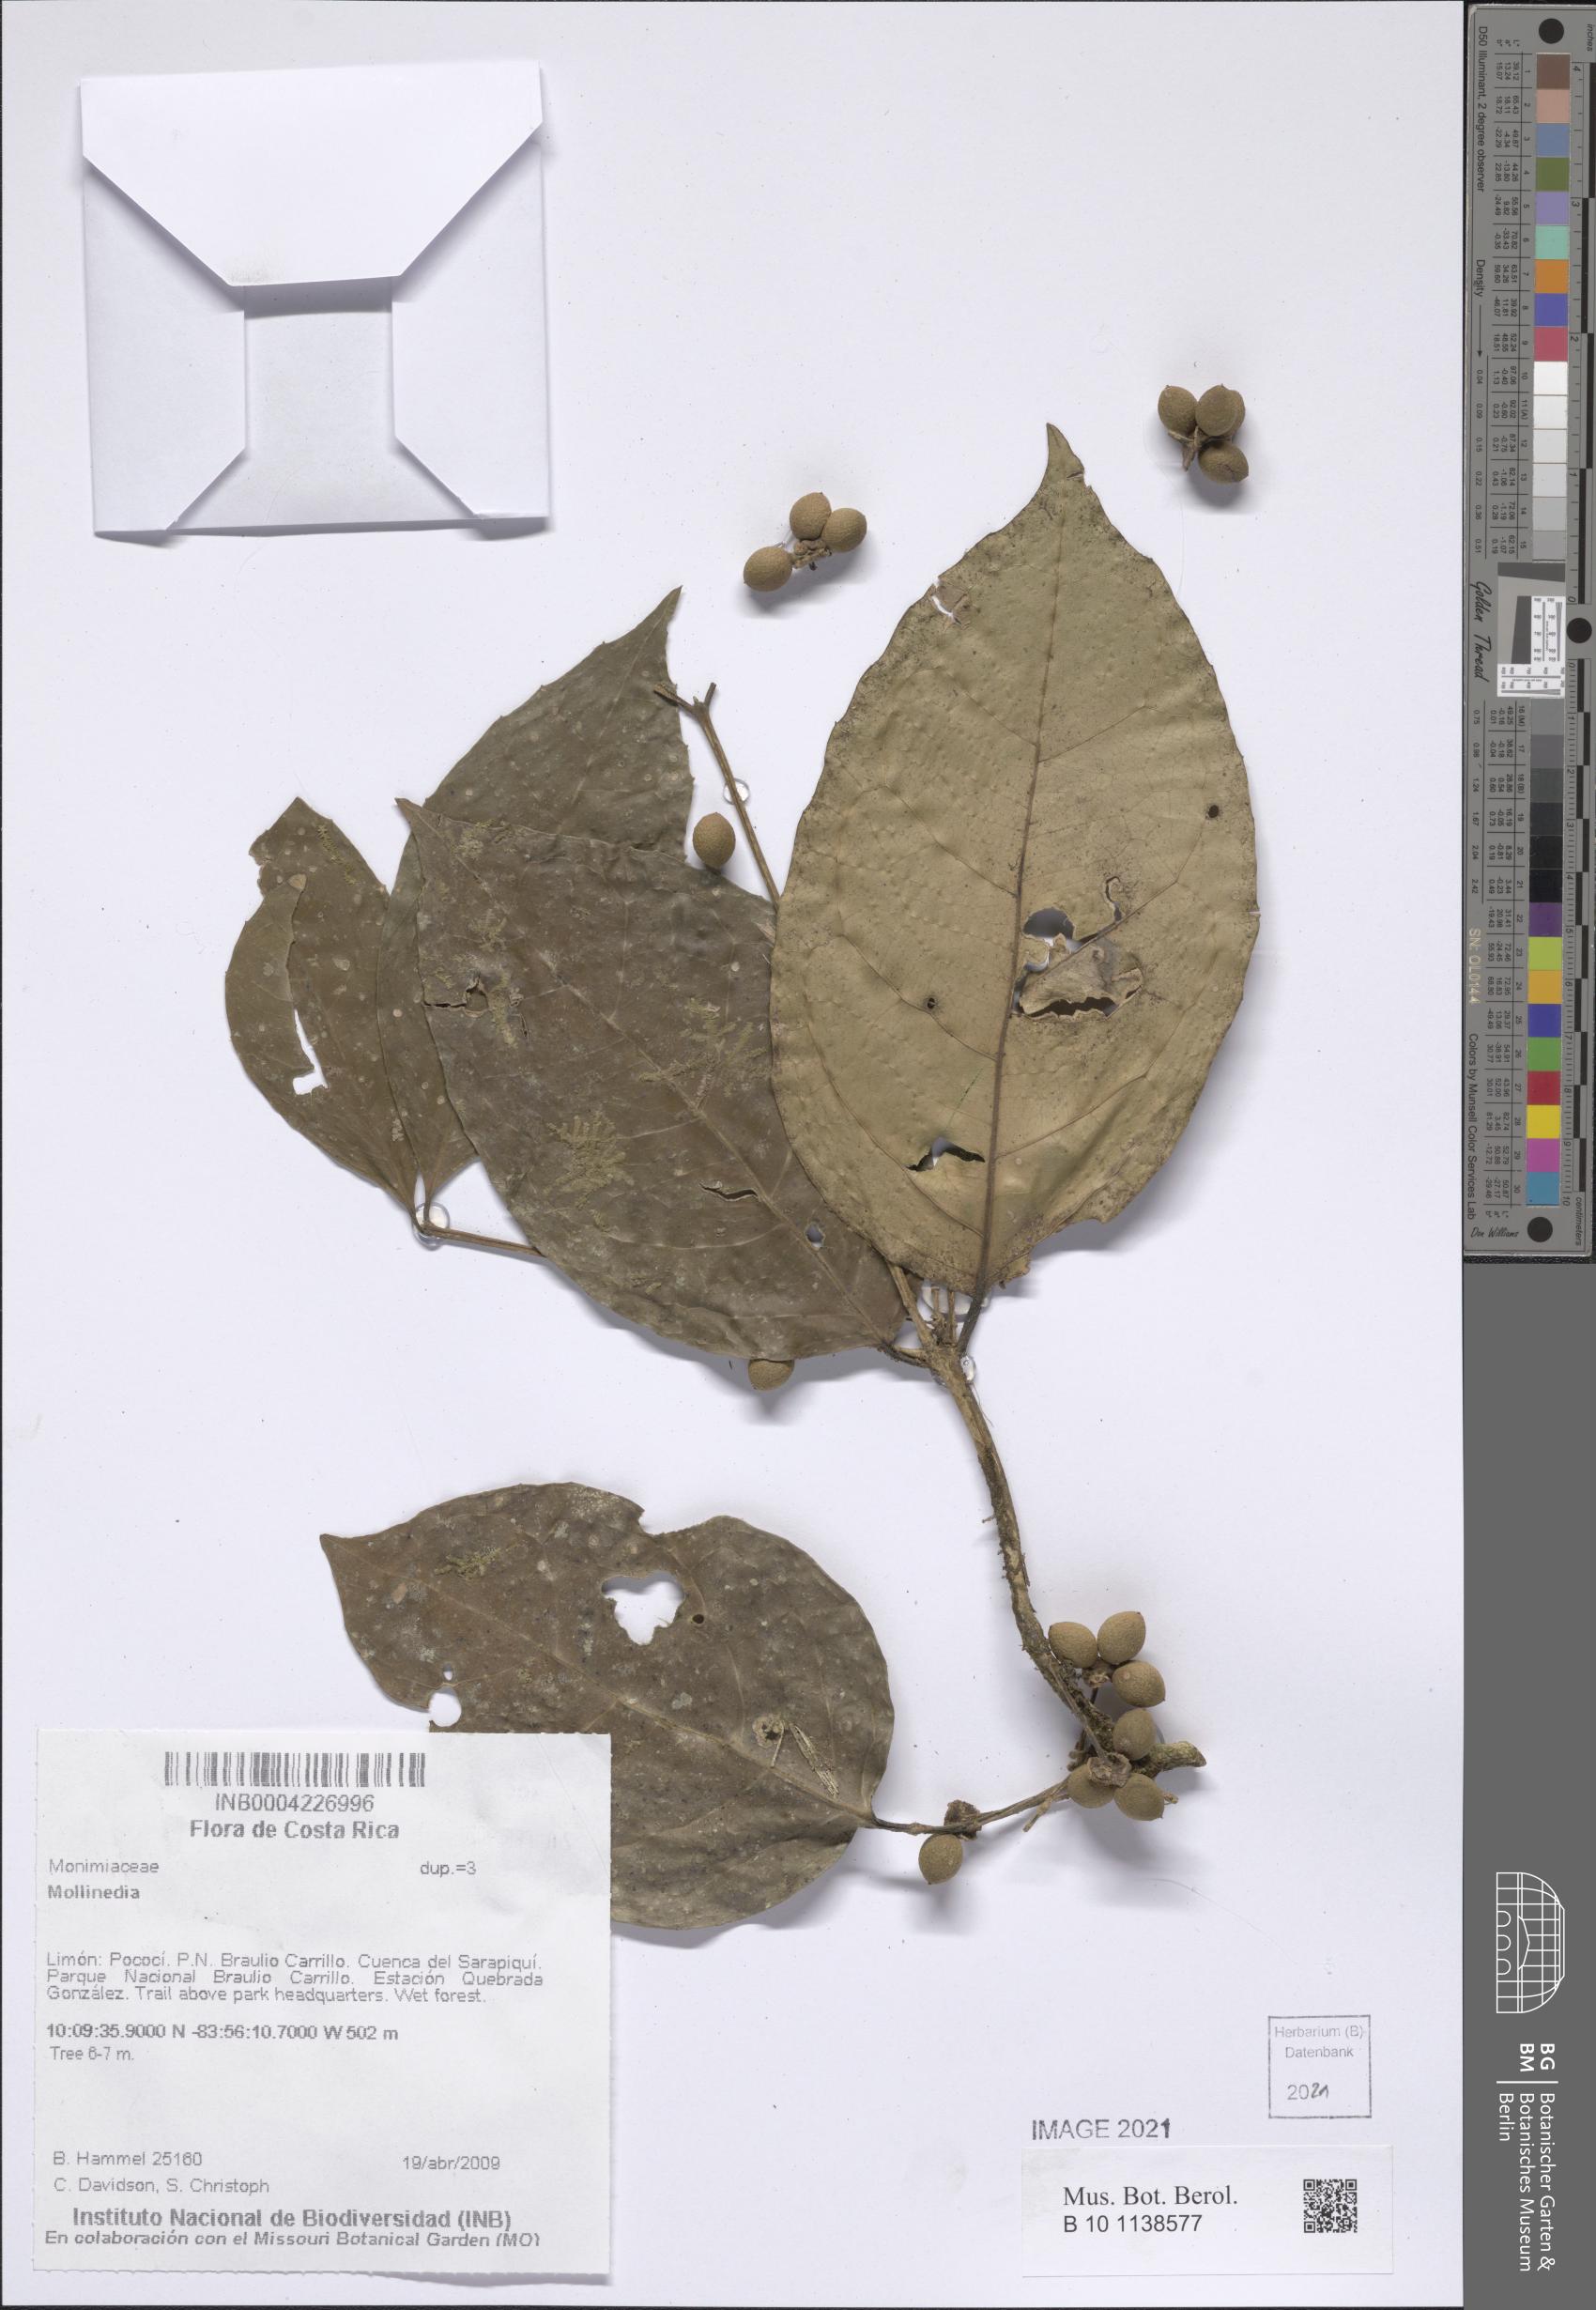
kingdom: Plantae
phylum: Tracheophyta
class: Magnoliopsida
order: Laurales
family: Monimiaceae
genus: Mollinedia
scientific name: Mollinedia viridiflora
